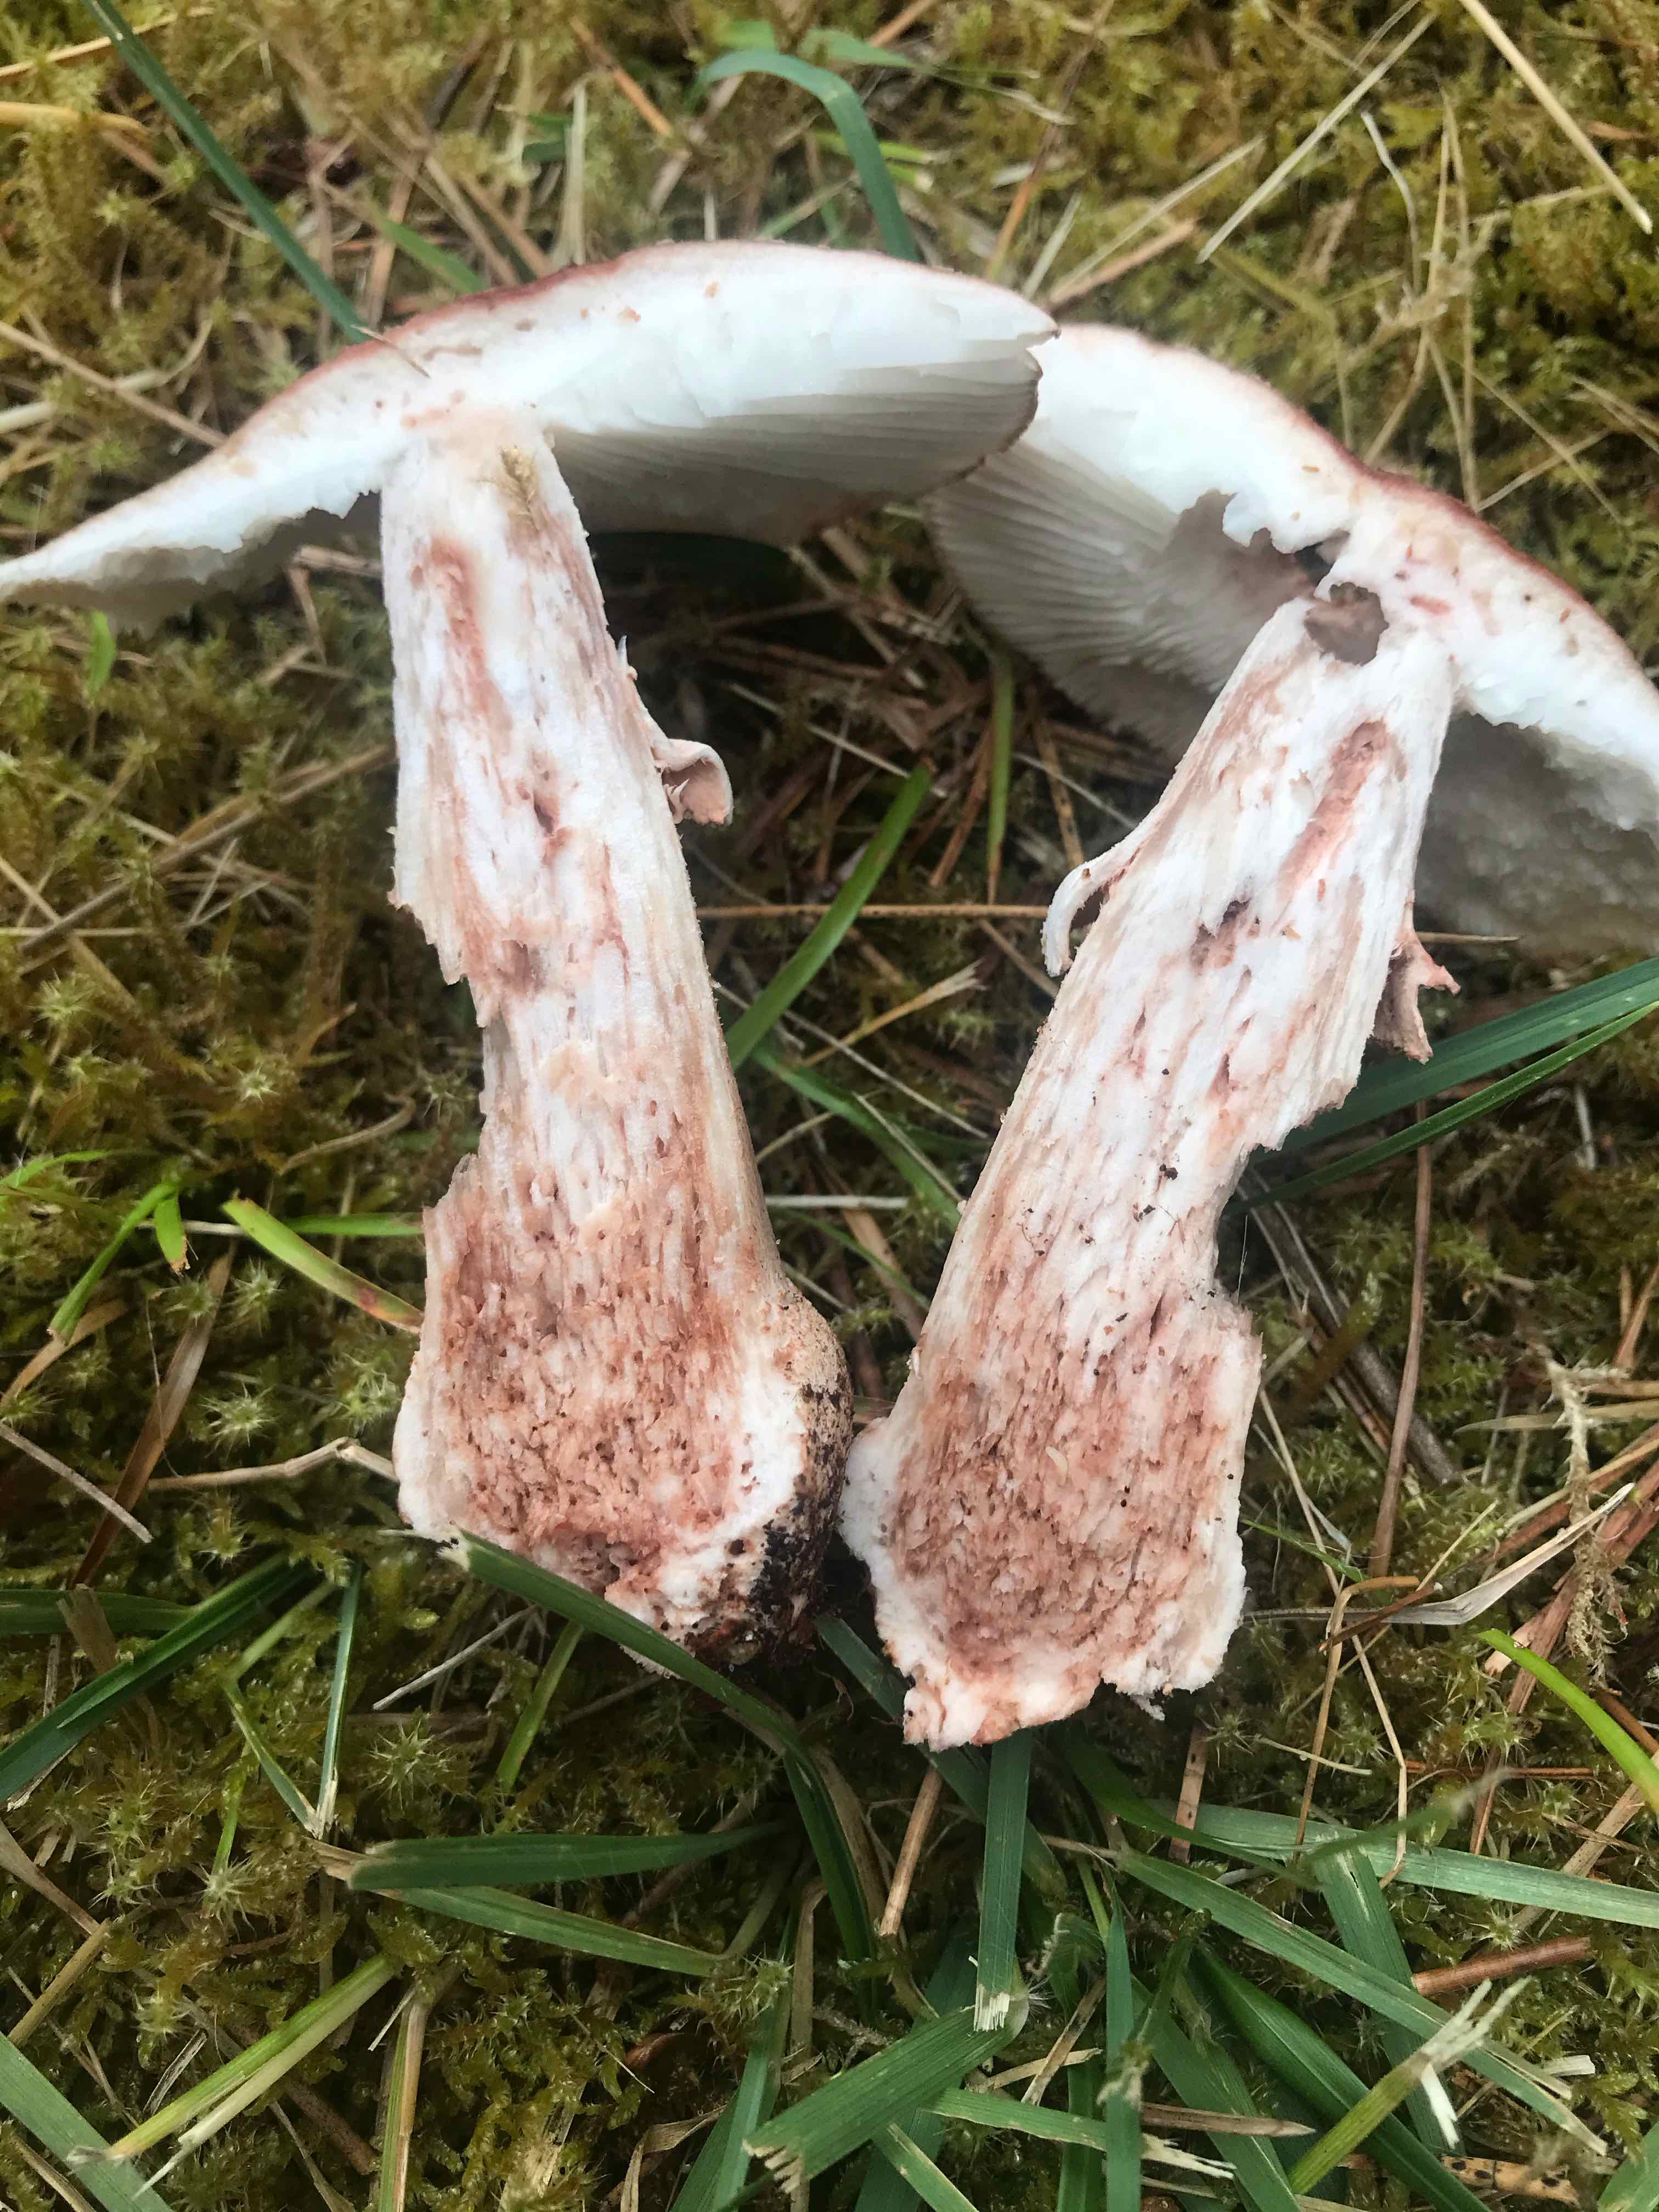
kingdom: Fungi
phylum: Basidiomycota
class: Agaricomycetes
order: Agaricales
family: Amanitaceae
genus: Amanita
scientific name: Amanita rubescens
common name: rødmende fluesvamp
